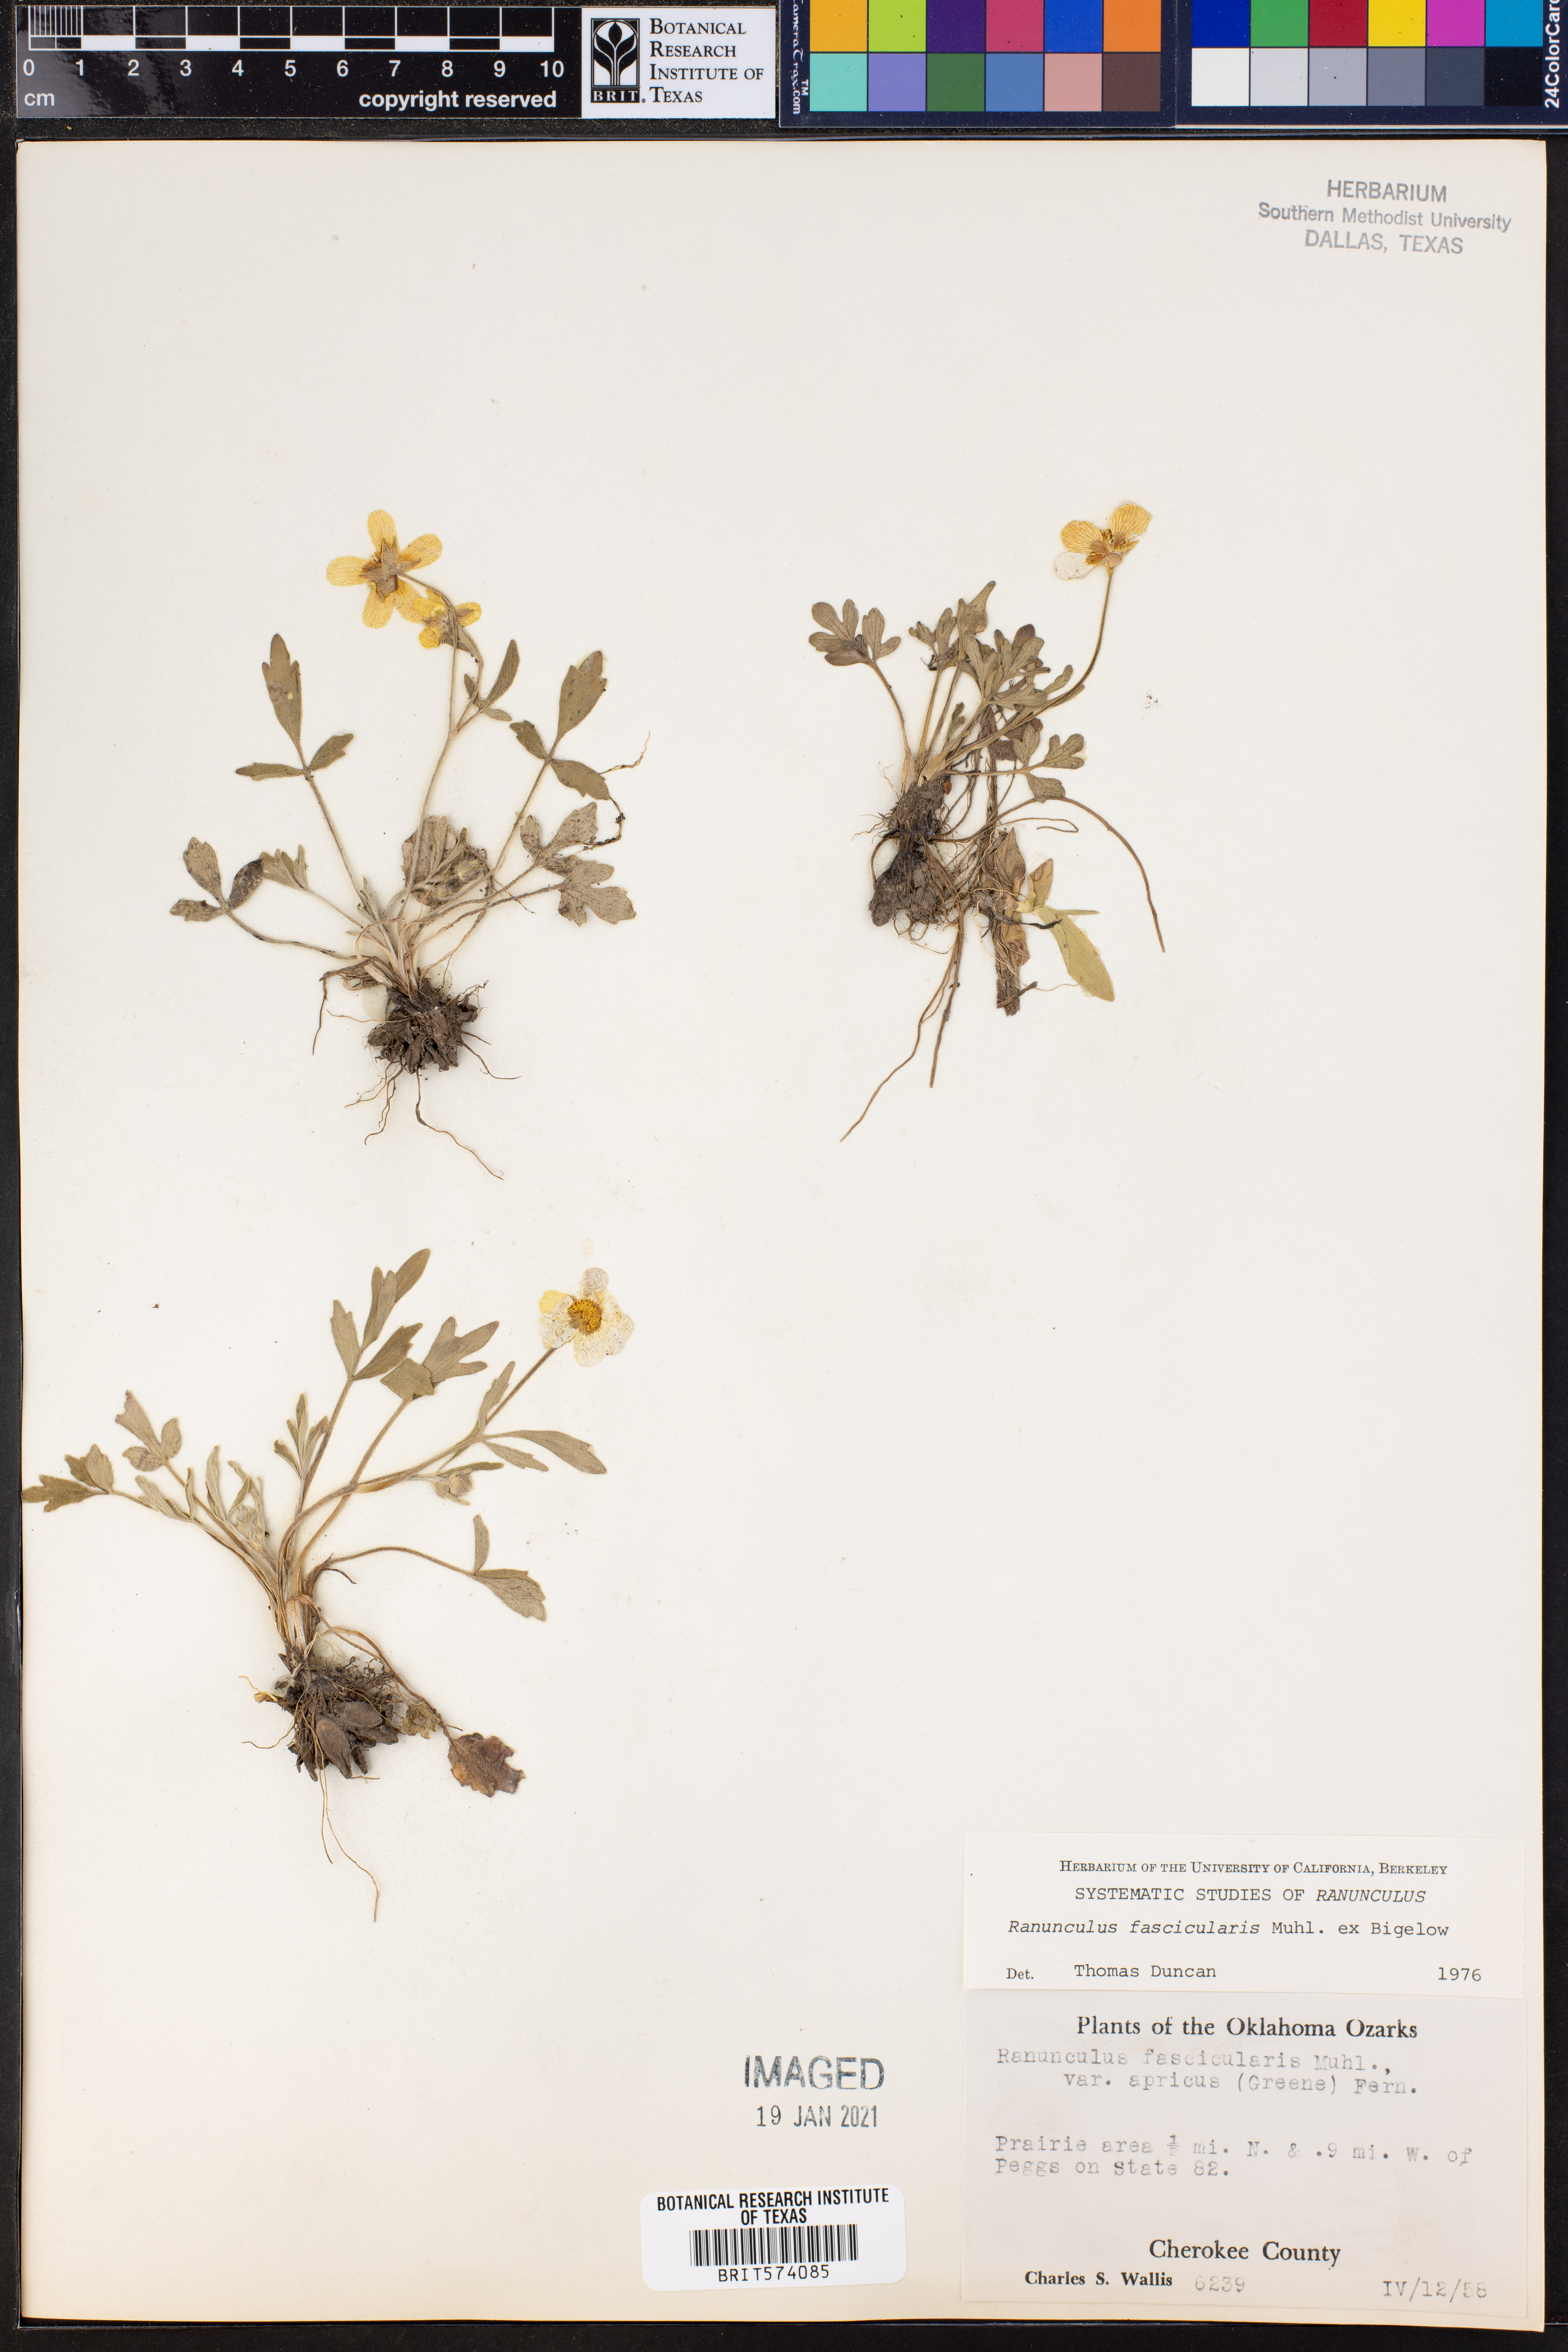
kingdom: Plantae
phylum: Tracheophyta
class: Magnoliopsida
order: Ranunculales
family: Ranunculaceae
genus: Ranunculus
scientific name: Ranunculus fascicularis
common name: Early buttercup
